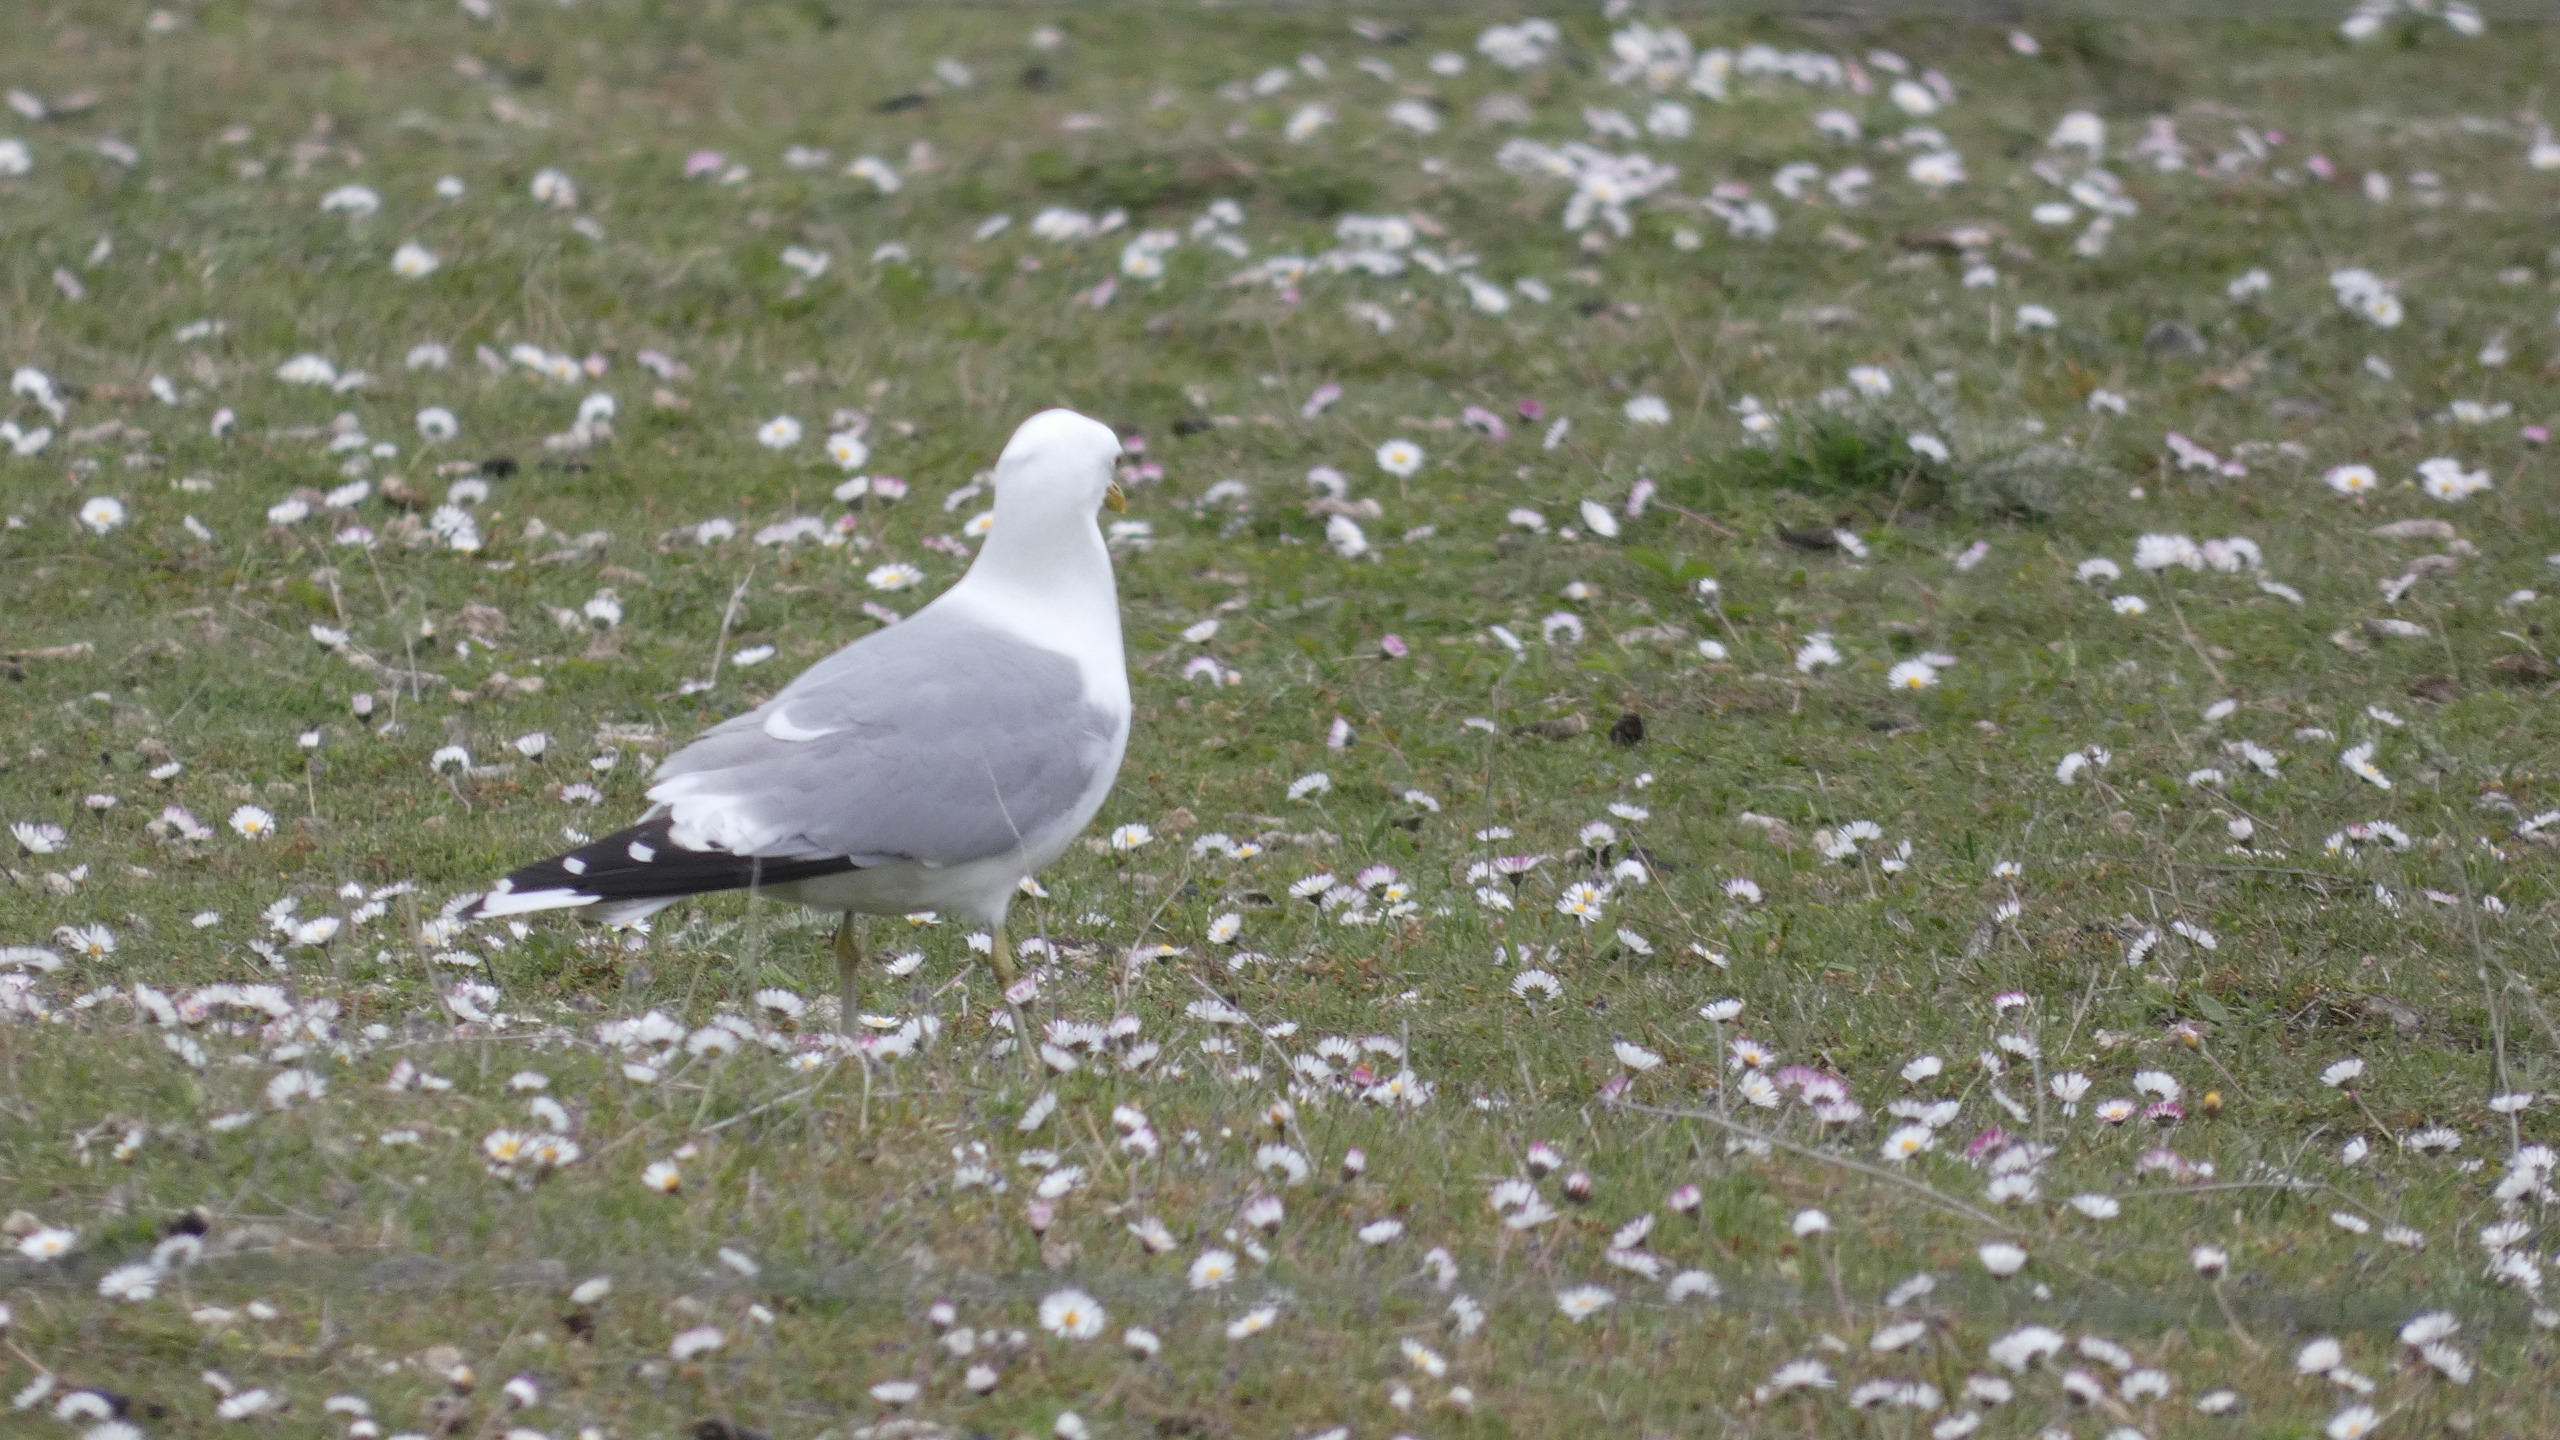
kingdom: Animalia
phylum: Chordata
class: Aves
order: Charadriiformes
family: Laridae
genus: Larus
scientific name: Larus canus
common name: Stormmåge
